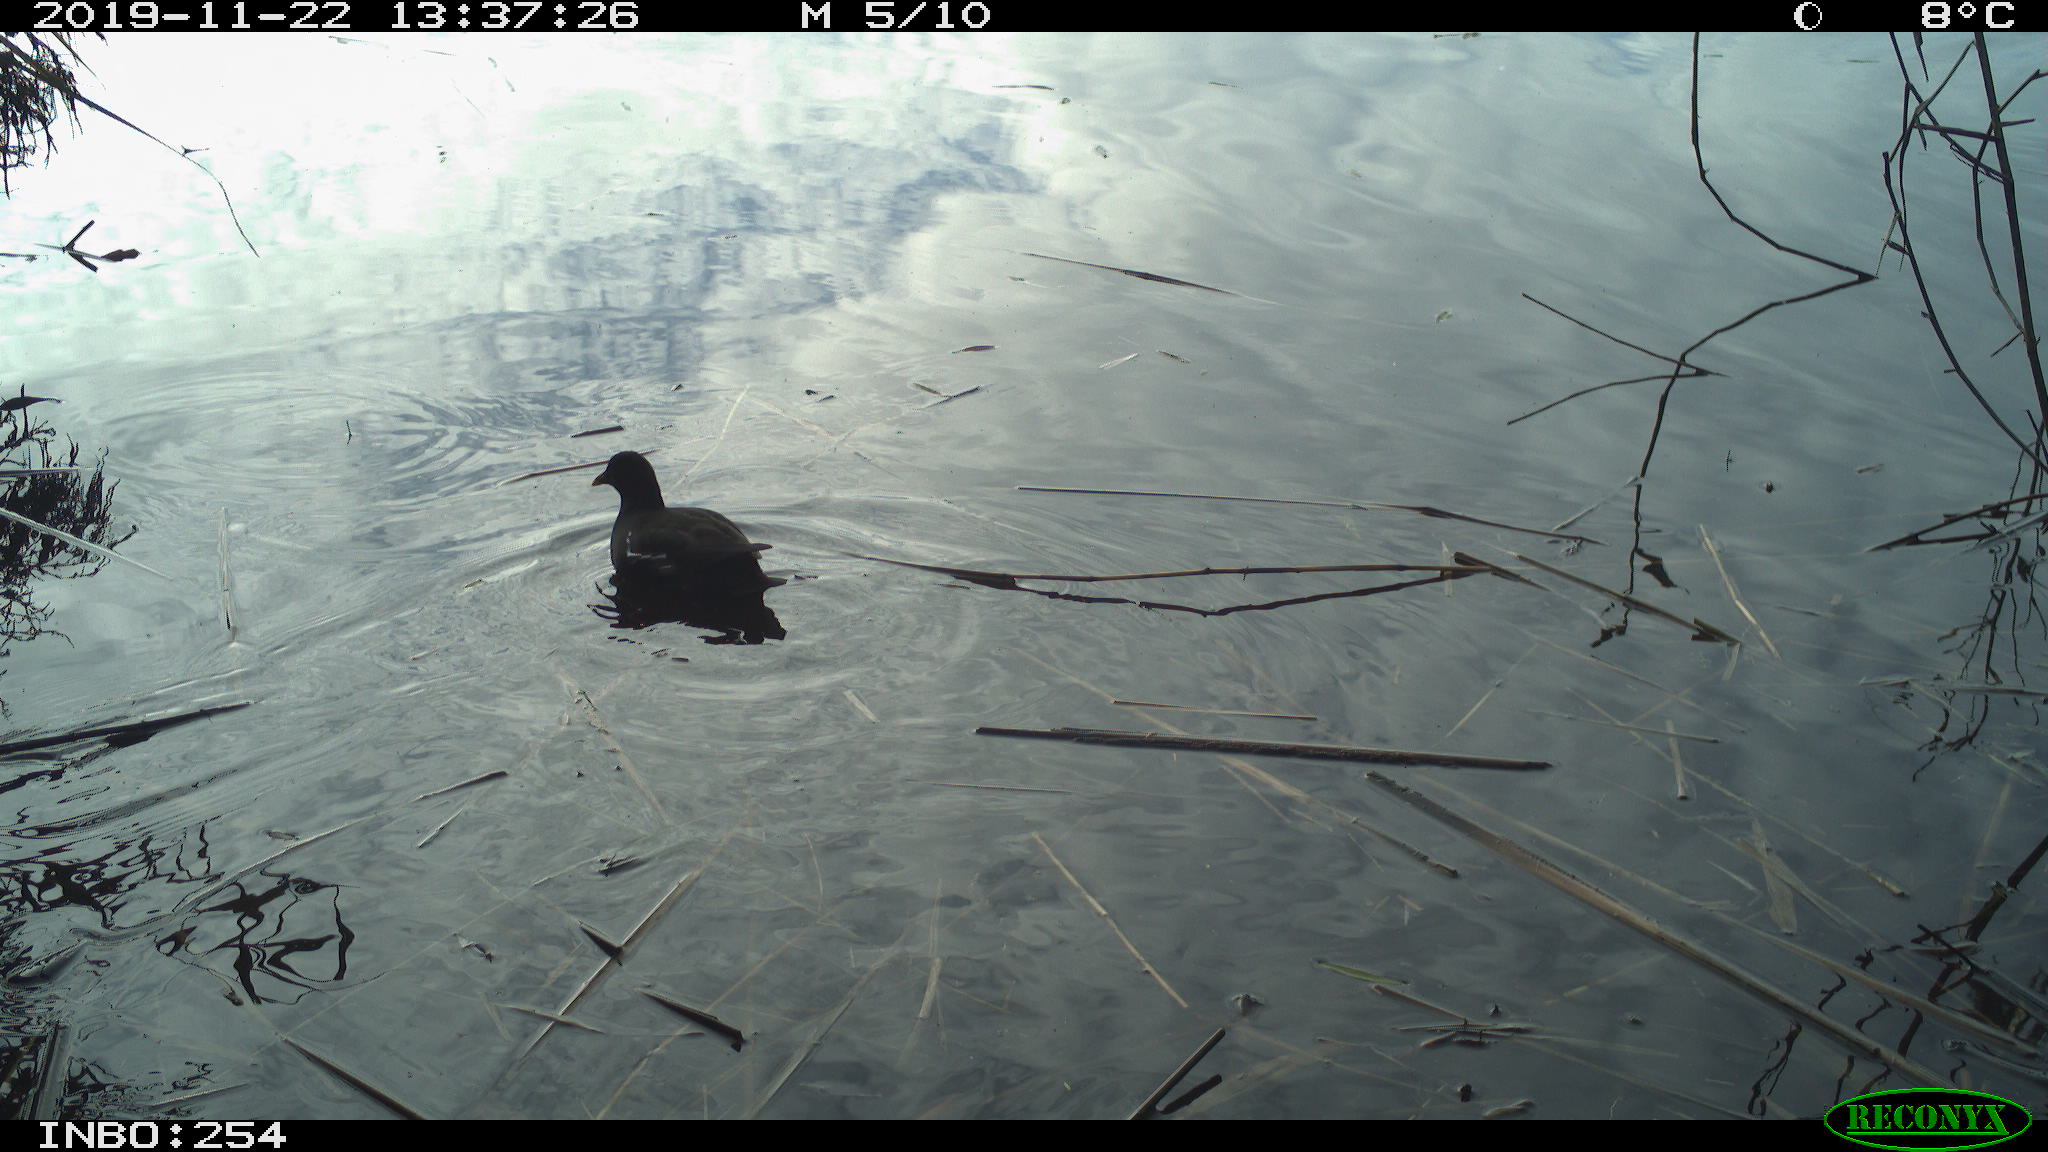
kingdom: Animalia
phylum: Chordata
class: Aves
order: Gruiformes
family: Rallidae
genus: Gallinula
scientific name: Gallinula chloropus
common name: Common moorhen
